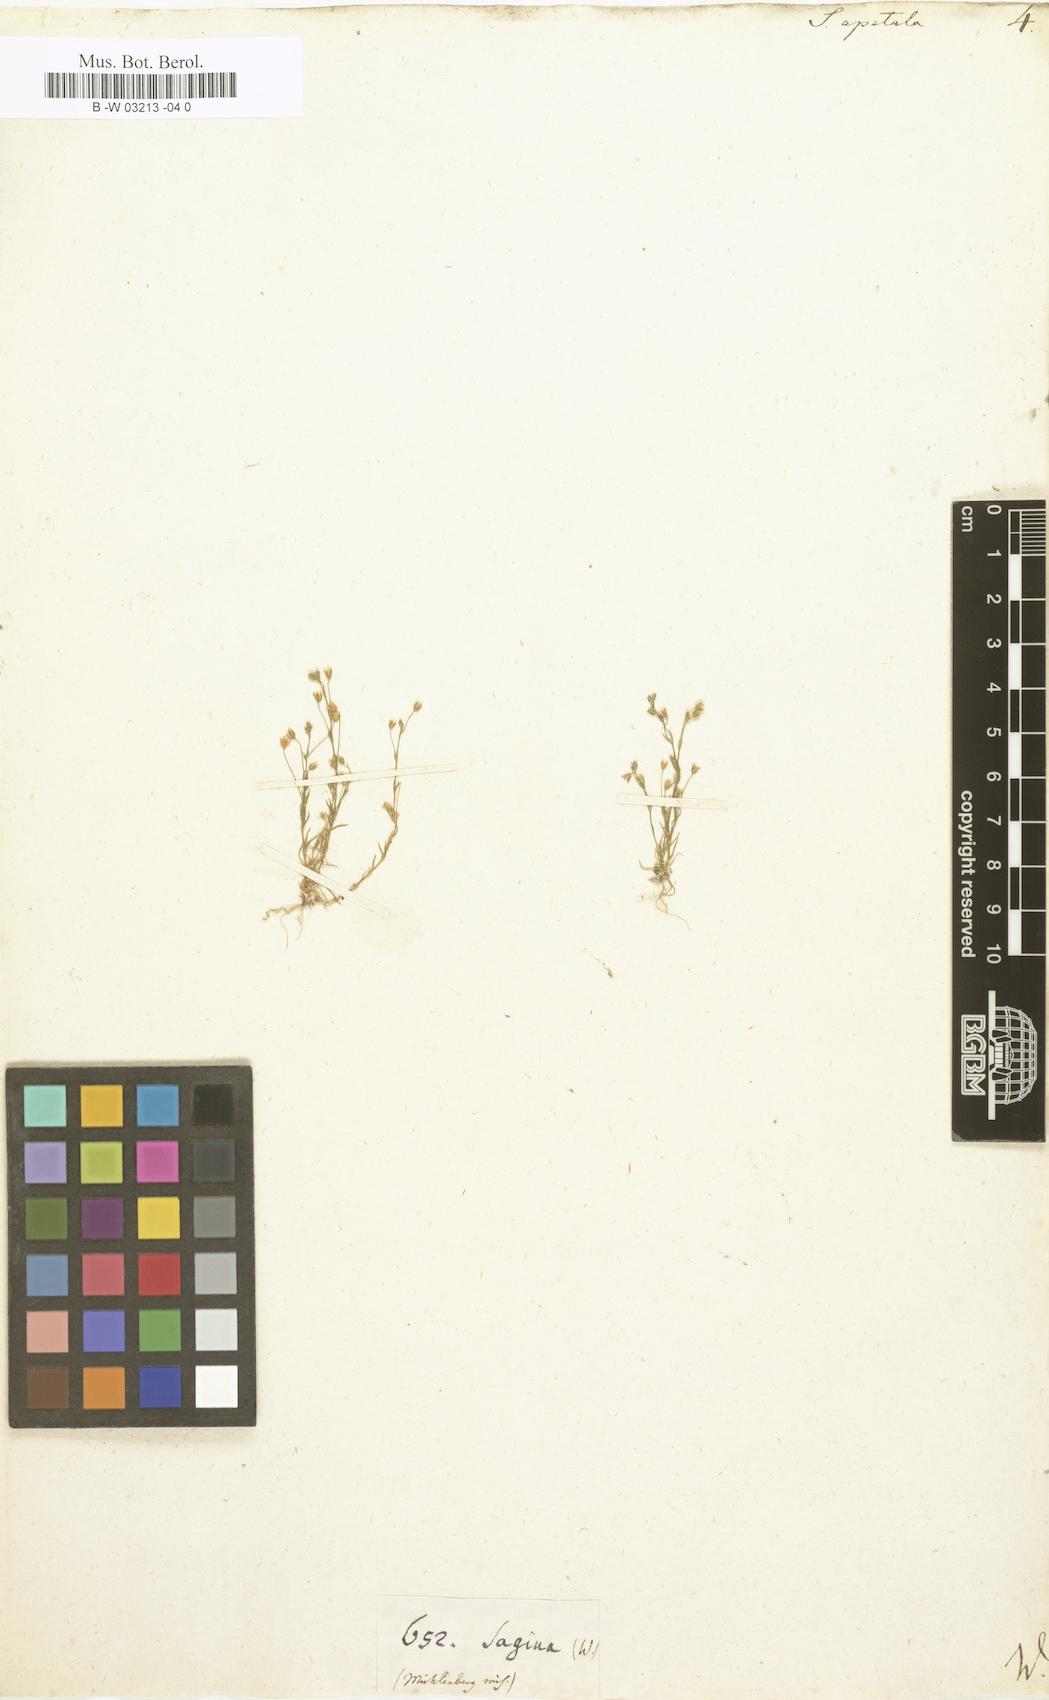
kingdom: Plantae
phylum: Tracheophyta
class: Magnoliopsida
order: Caryophyllales
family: Caryophyllaceae
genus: Sagina
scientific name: Sagina apetala
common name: Annual pearlwort
